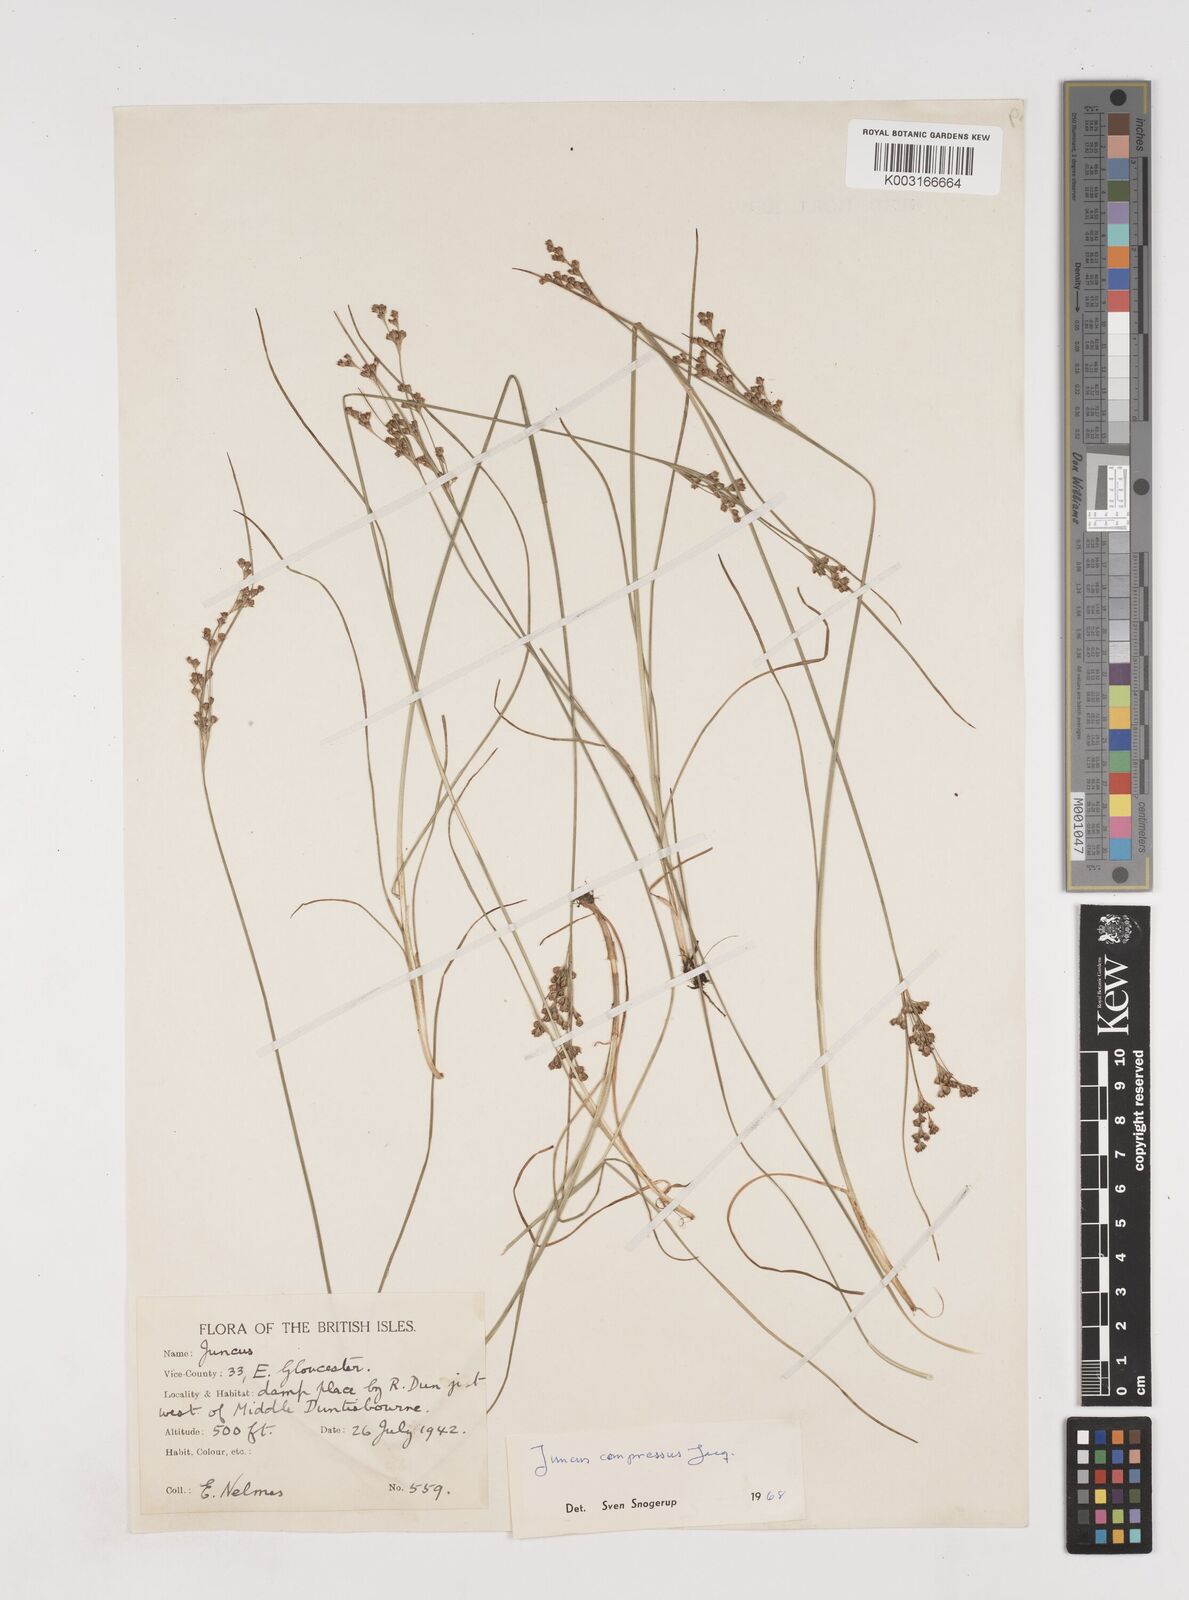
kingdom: Plantae
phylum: Tracheophyta
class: Liliopsida
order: Poales
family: Juncaceae
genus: Juncus
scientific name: Juncus compressus
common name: Round-fruited rush
